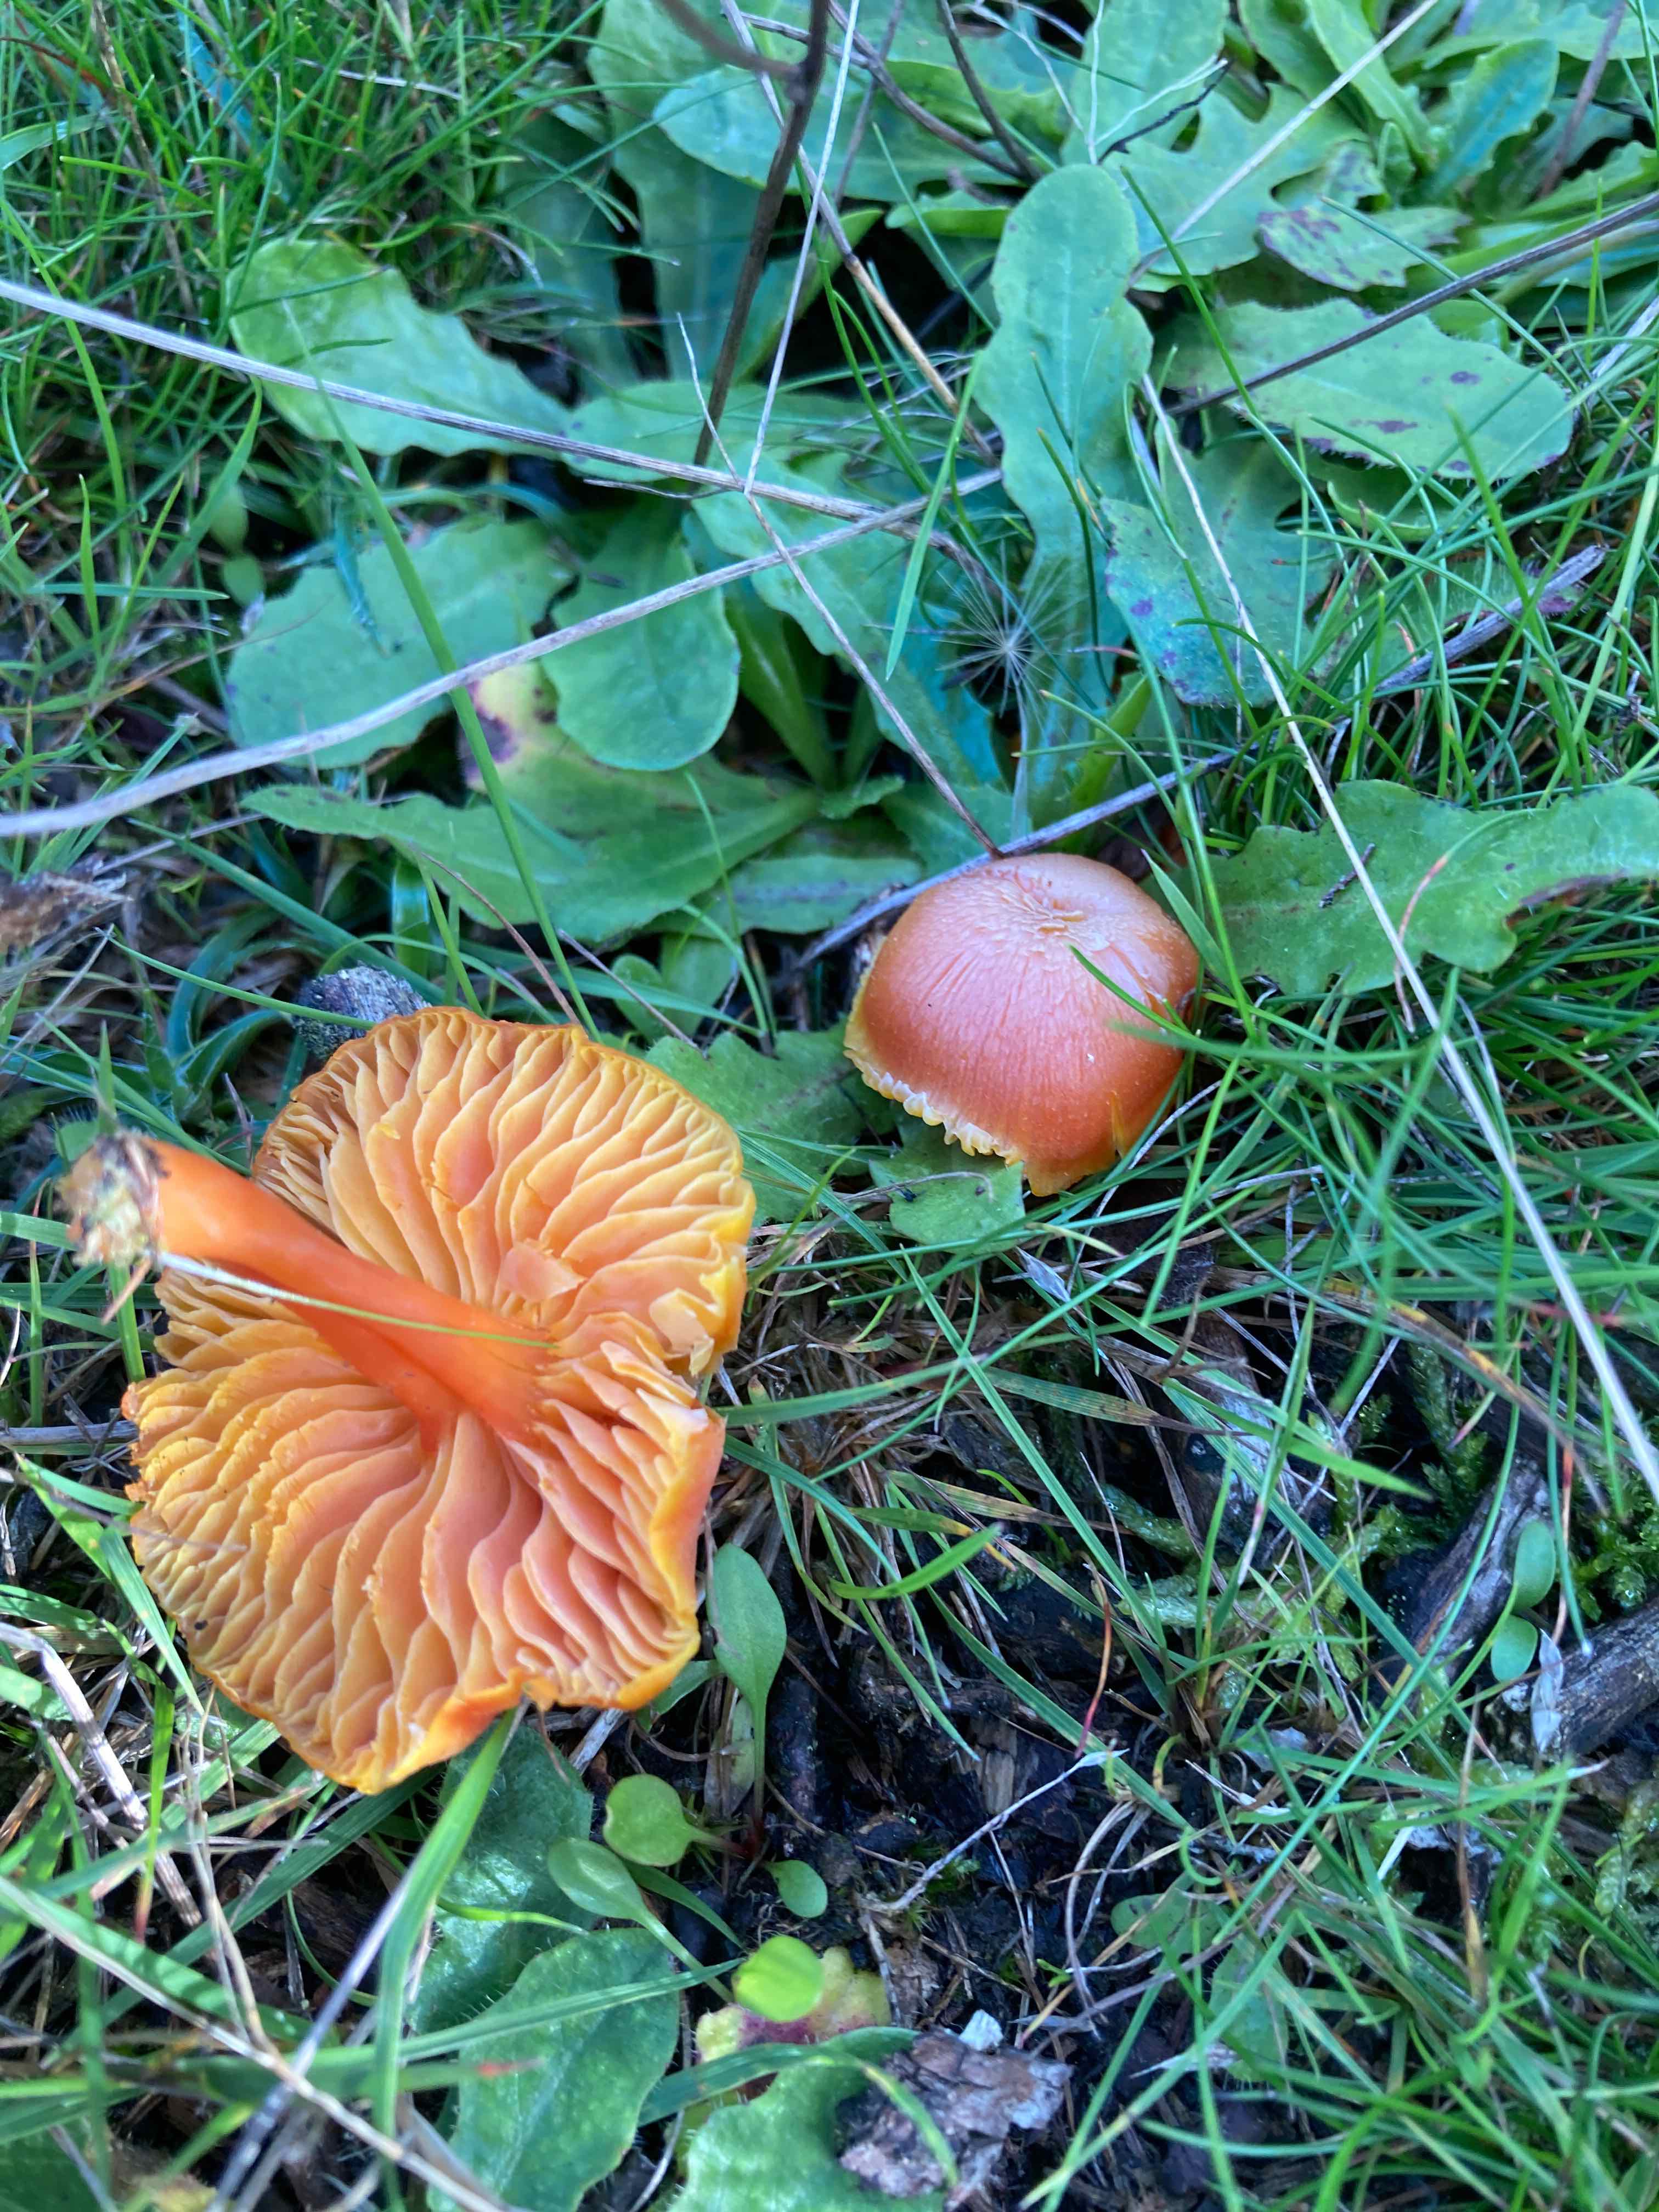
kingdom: Fungi
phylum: Basidiomycota
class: Agaricomycetes
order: Agaricales
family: Hygrophoraceae
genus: Hygrocybe
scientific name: Hygrocybe miniata
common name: mønje-vokshat
